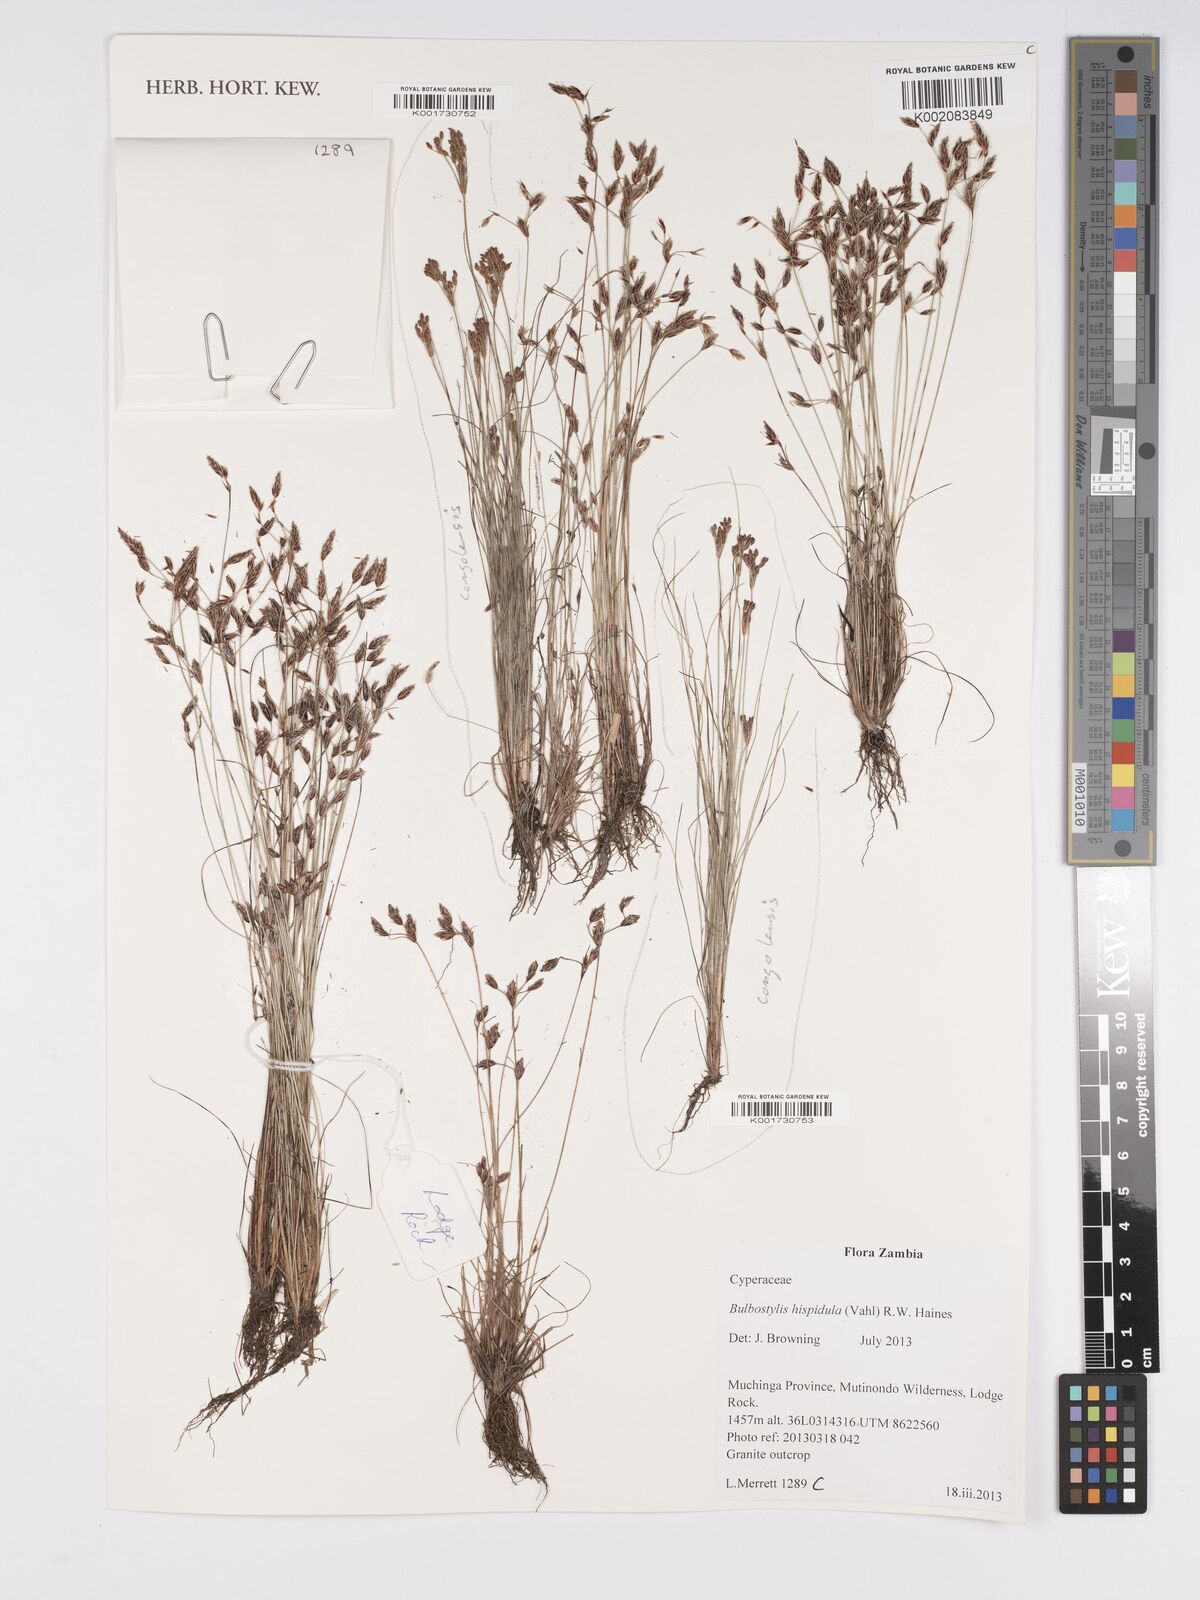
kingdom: Plantae
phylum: Tracheophyta
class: Liliopsida
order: Poales
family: Cyperaceae
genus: Bulbostylis
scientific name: Bulbostylis hispidula
